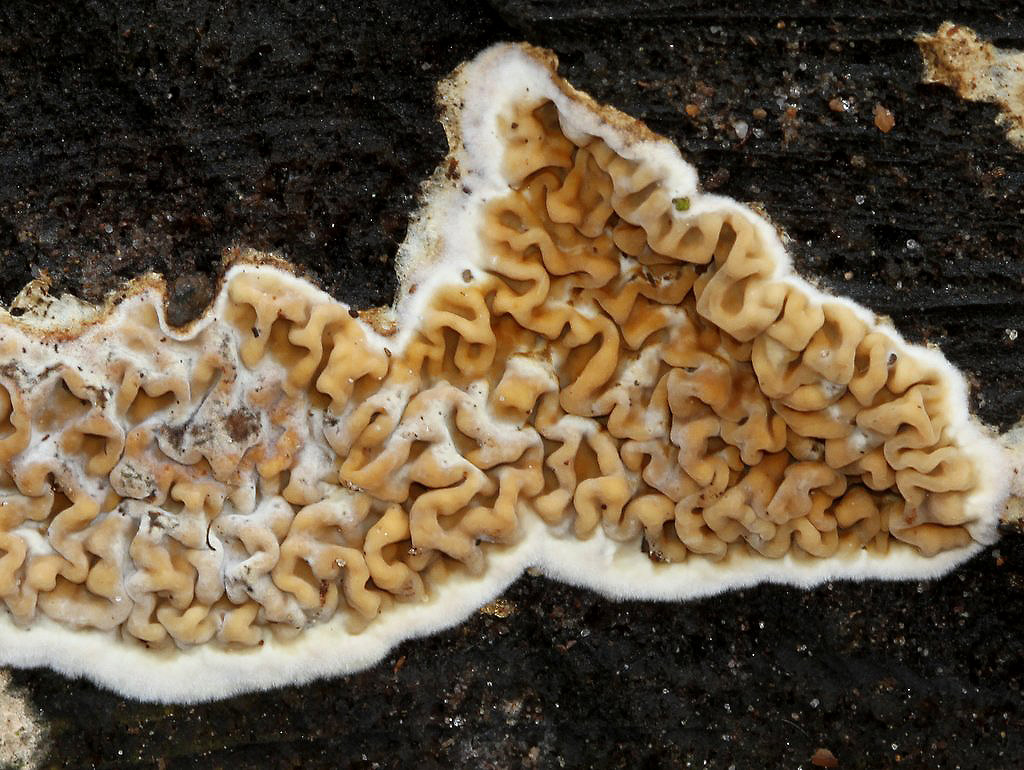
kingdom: Fungi
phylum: Basidiomycota
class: Agaricomycetes
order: Boletales
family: Serpulaceae
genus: Serpula
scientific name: Serpula himantioides
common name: tyndkødet hussvamp
